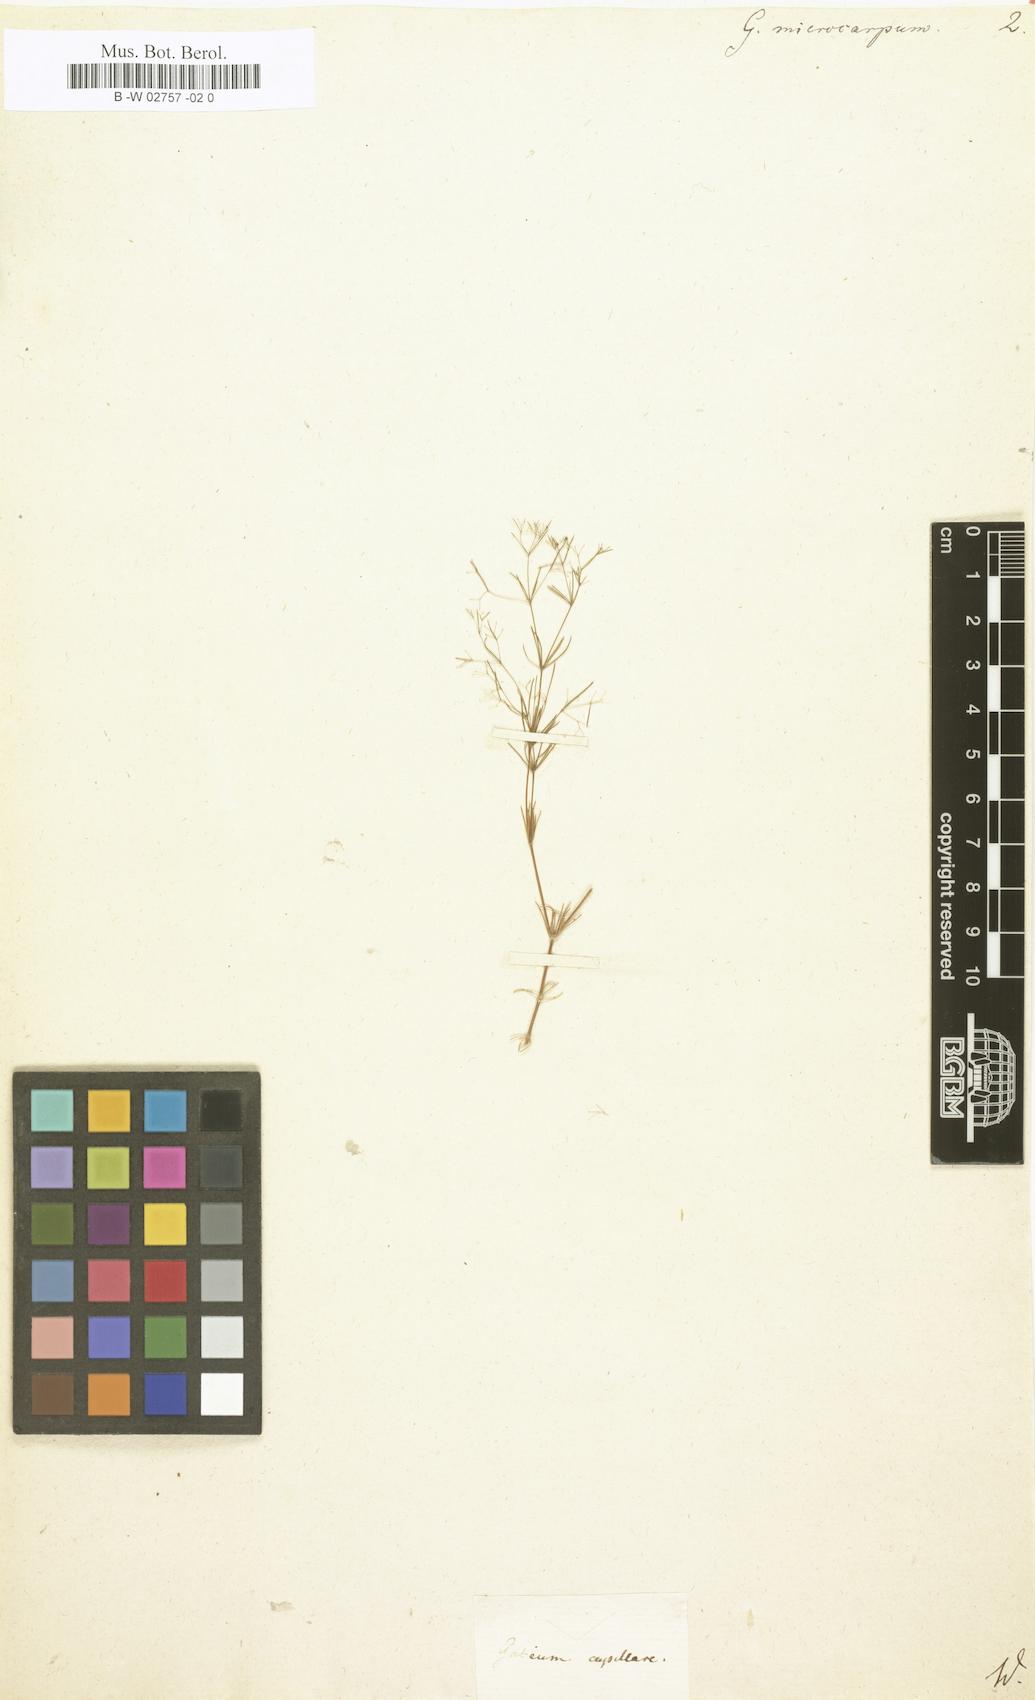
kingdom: Plantae
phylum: Tracheophyta
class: Magnoliopsida
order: Gentianales
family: Rubiaceae
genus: Galium
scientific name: Galium setaceum
